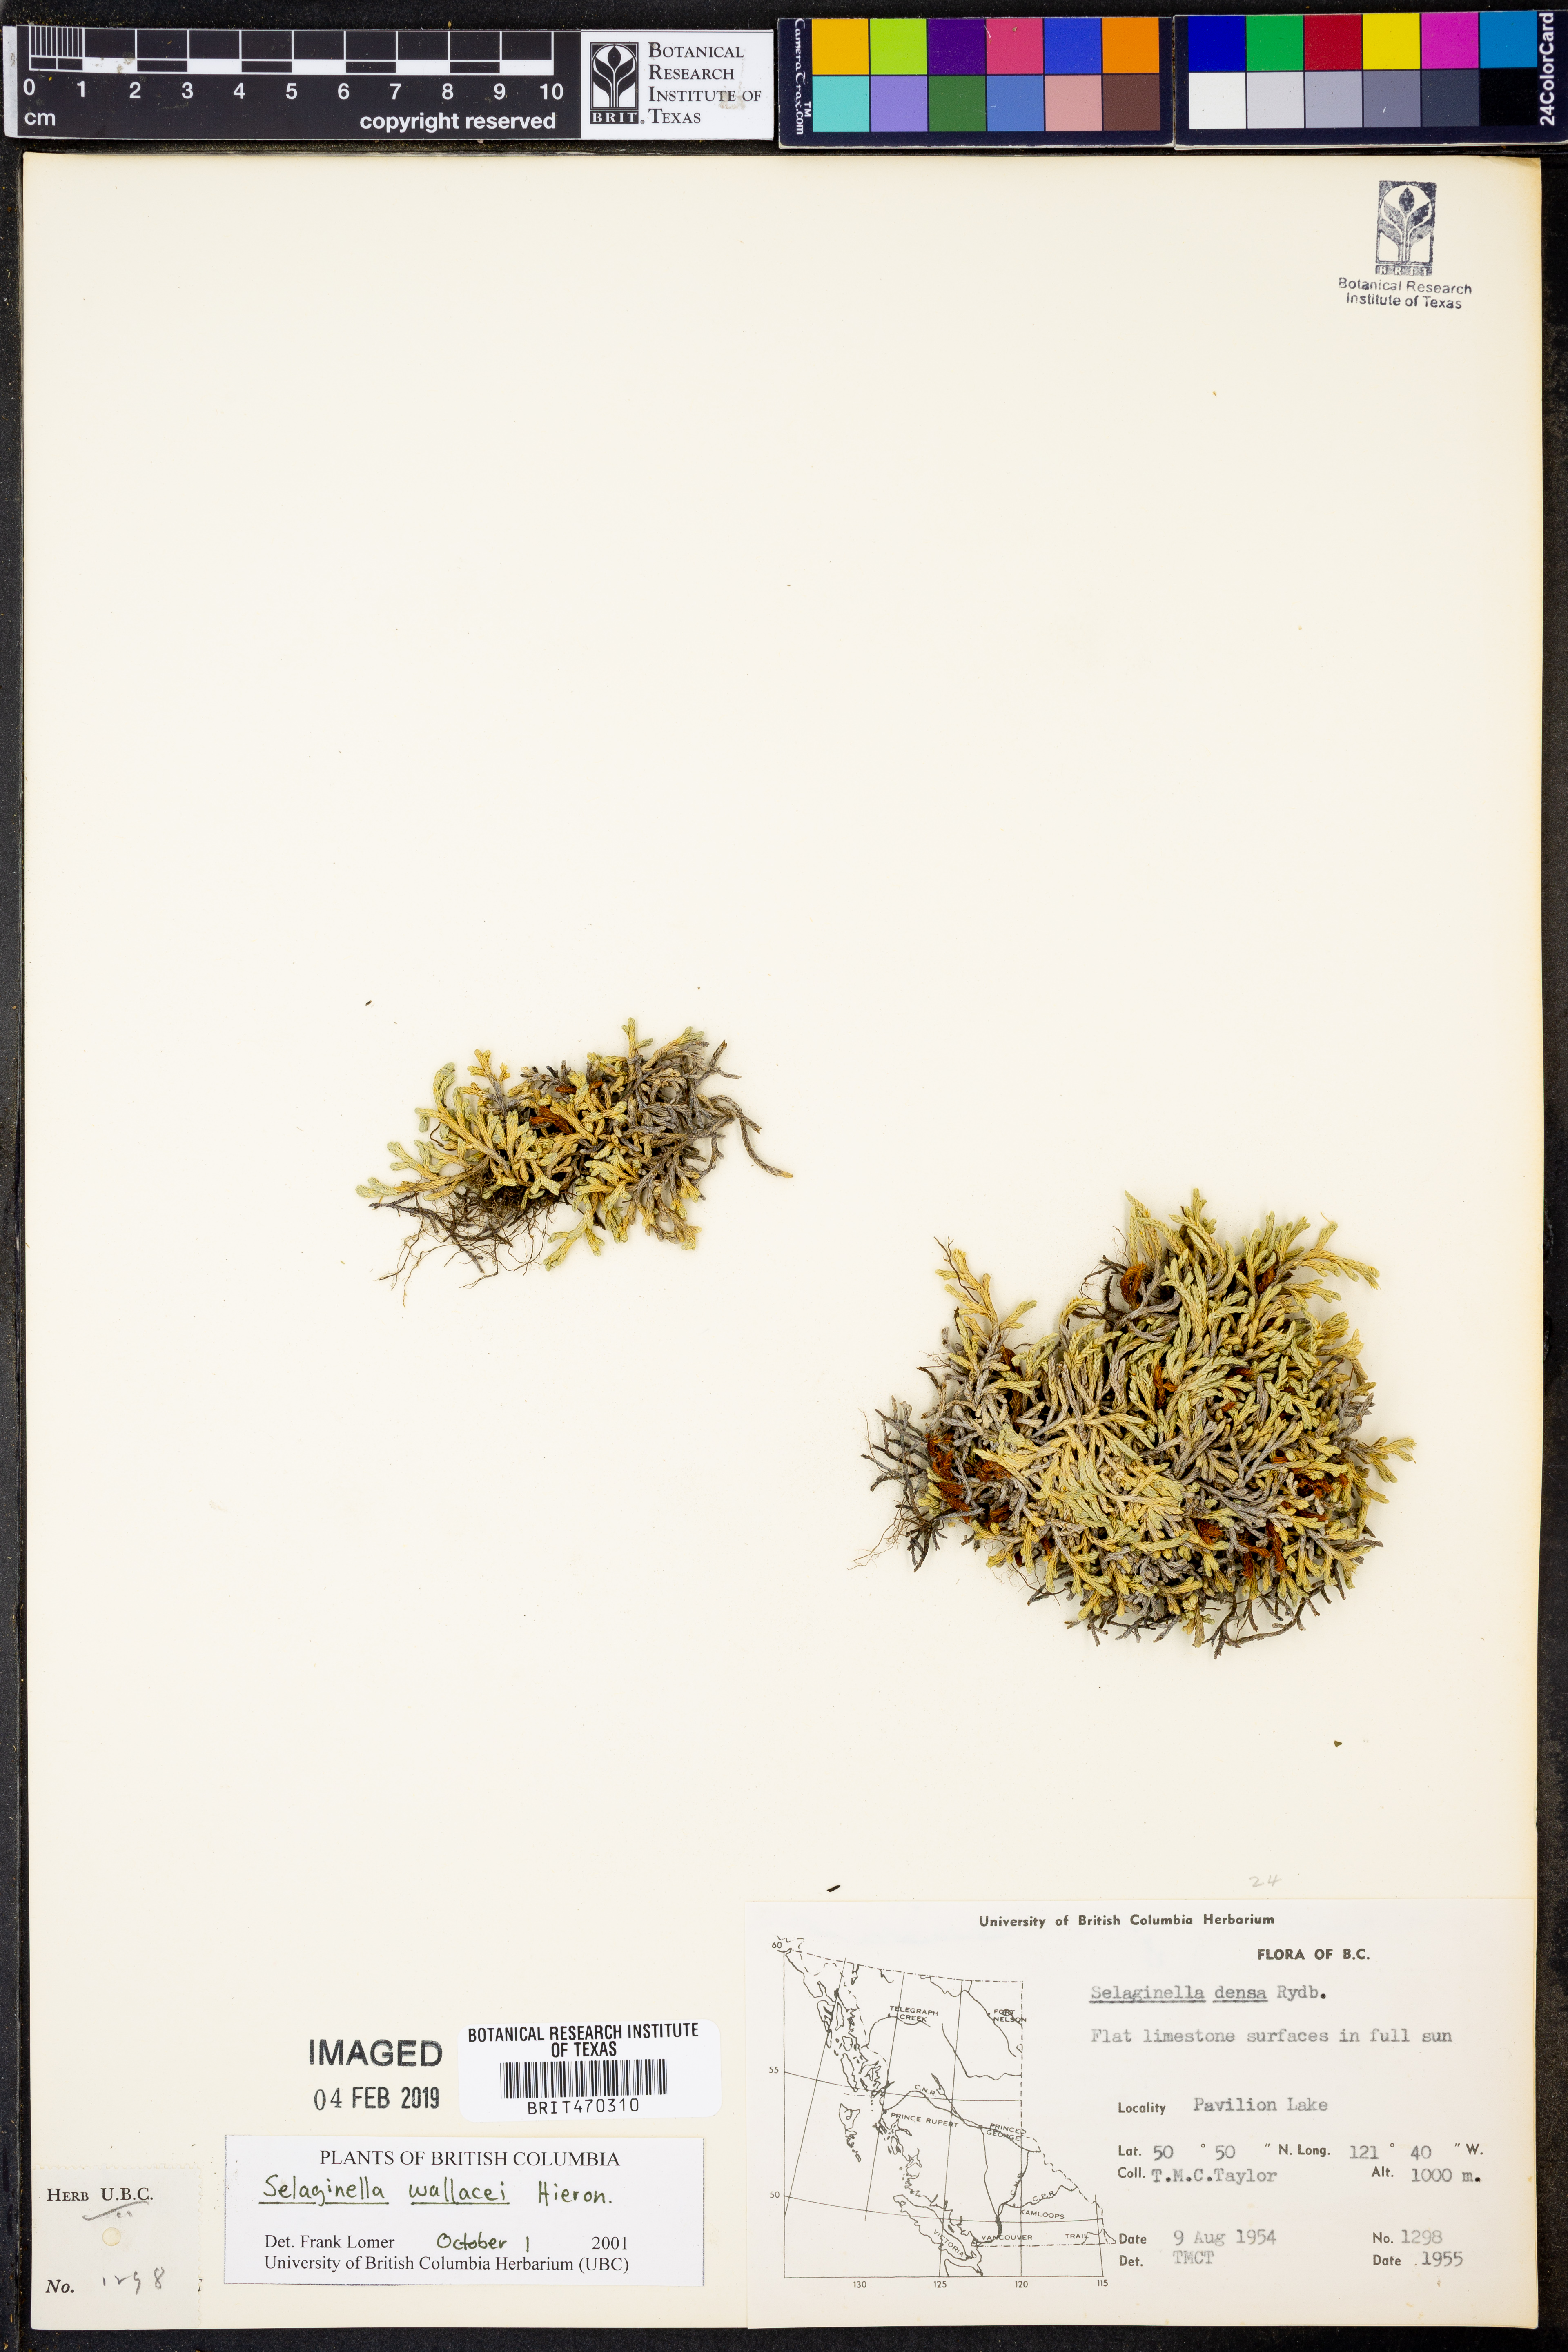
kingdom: Plantae
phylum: Tracheophyta
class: Lycopodiopsida
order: Selaginellales
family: Selaginellaceae
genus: Selaginella
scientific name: Selaginella wallacei
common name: Wallace's selaginella
